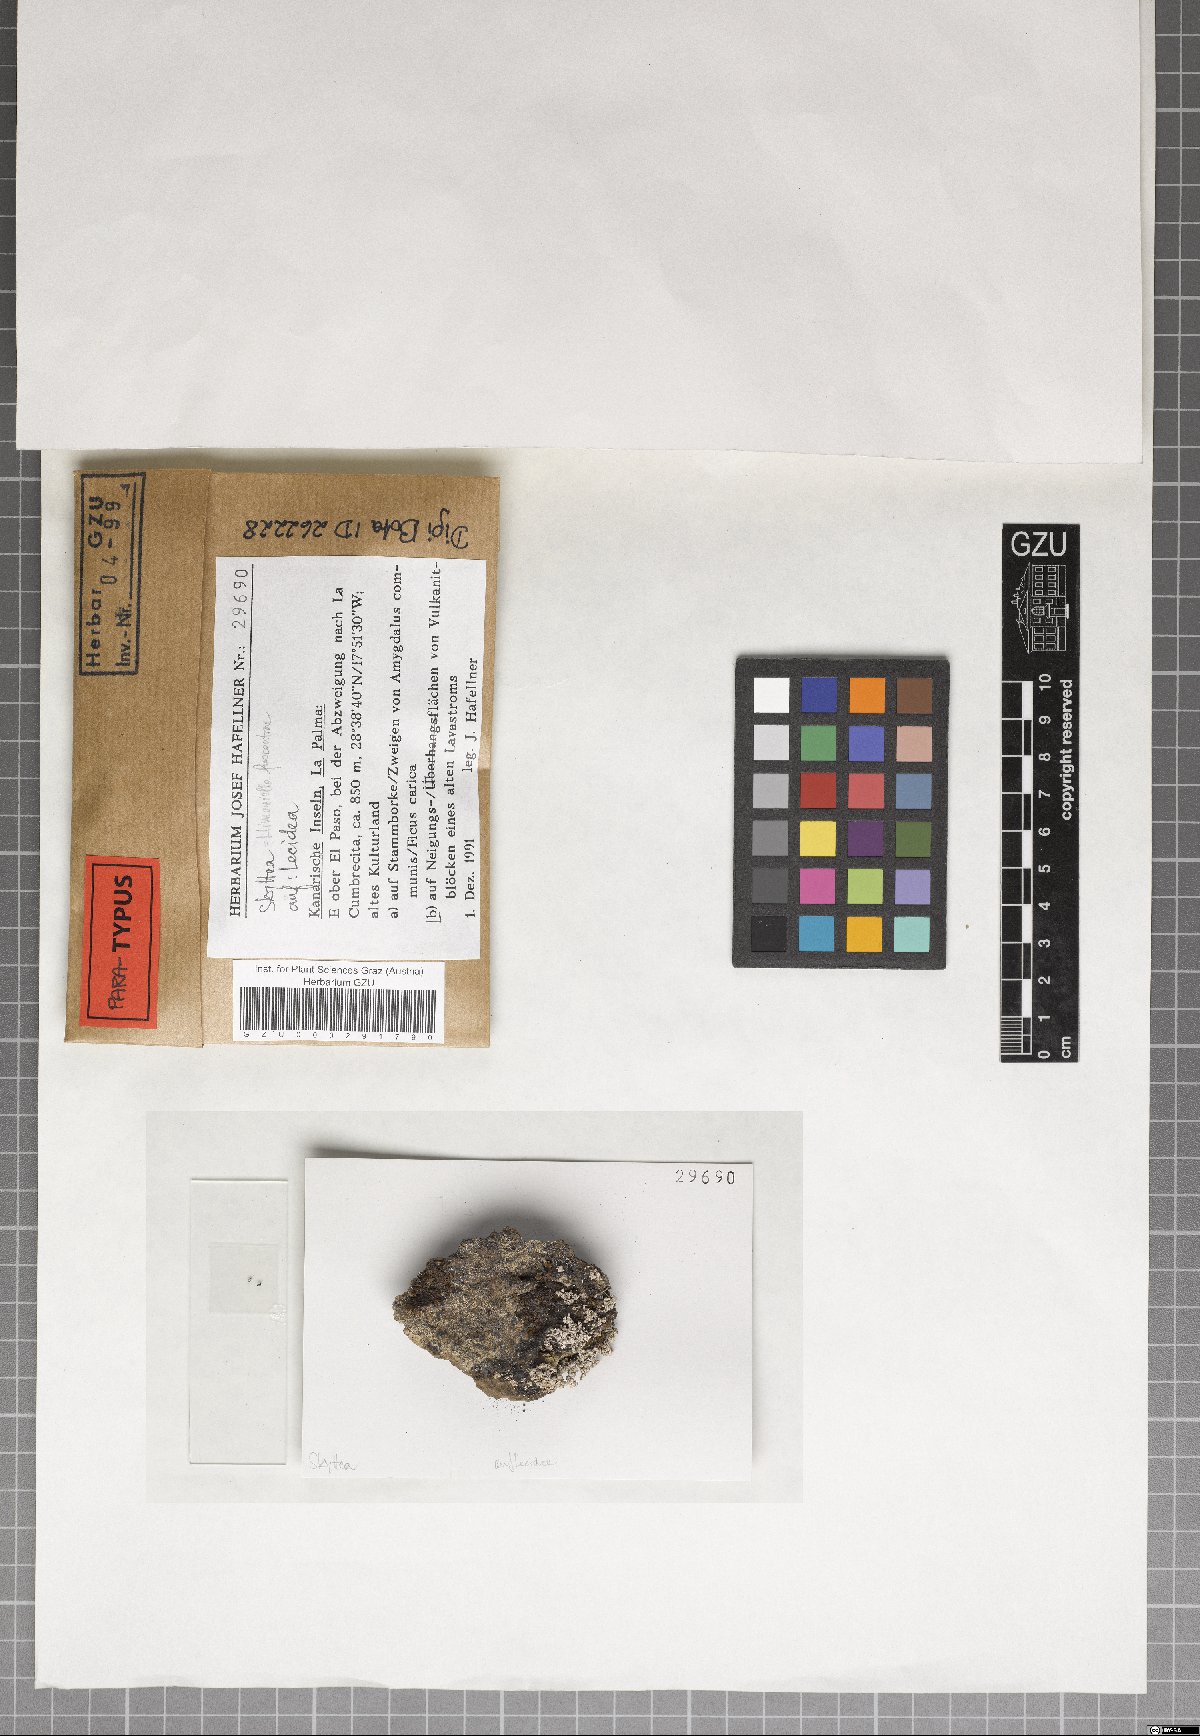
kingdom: Fungi
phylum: Ascomycota
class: Leotiomycetes
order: Helotiales
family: Cordieritidaceae
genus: Llimoniella
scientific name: Llimoniella fuscoatrae
